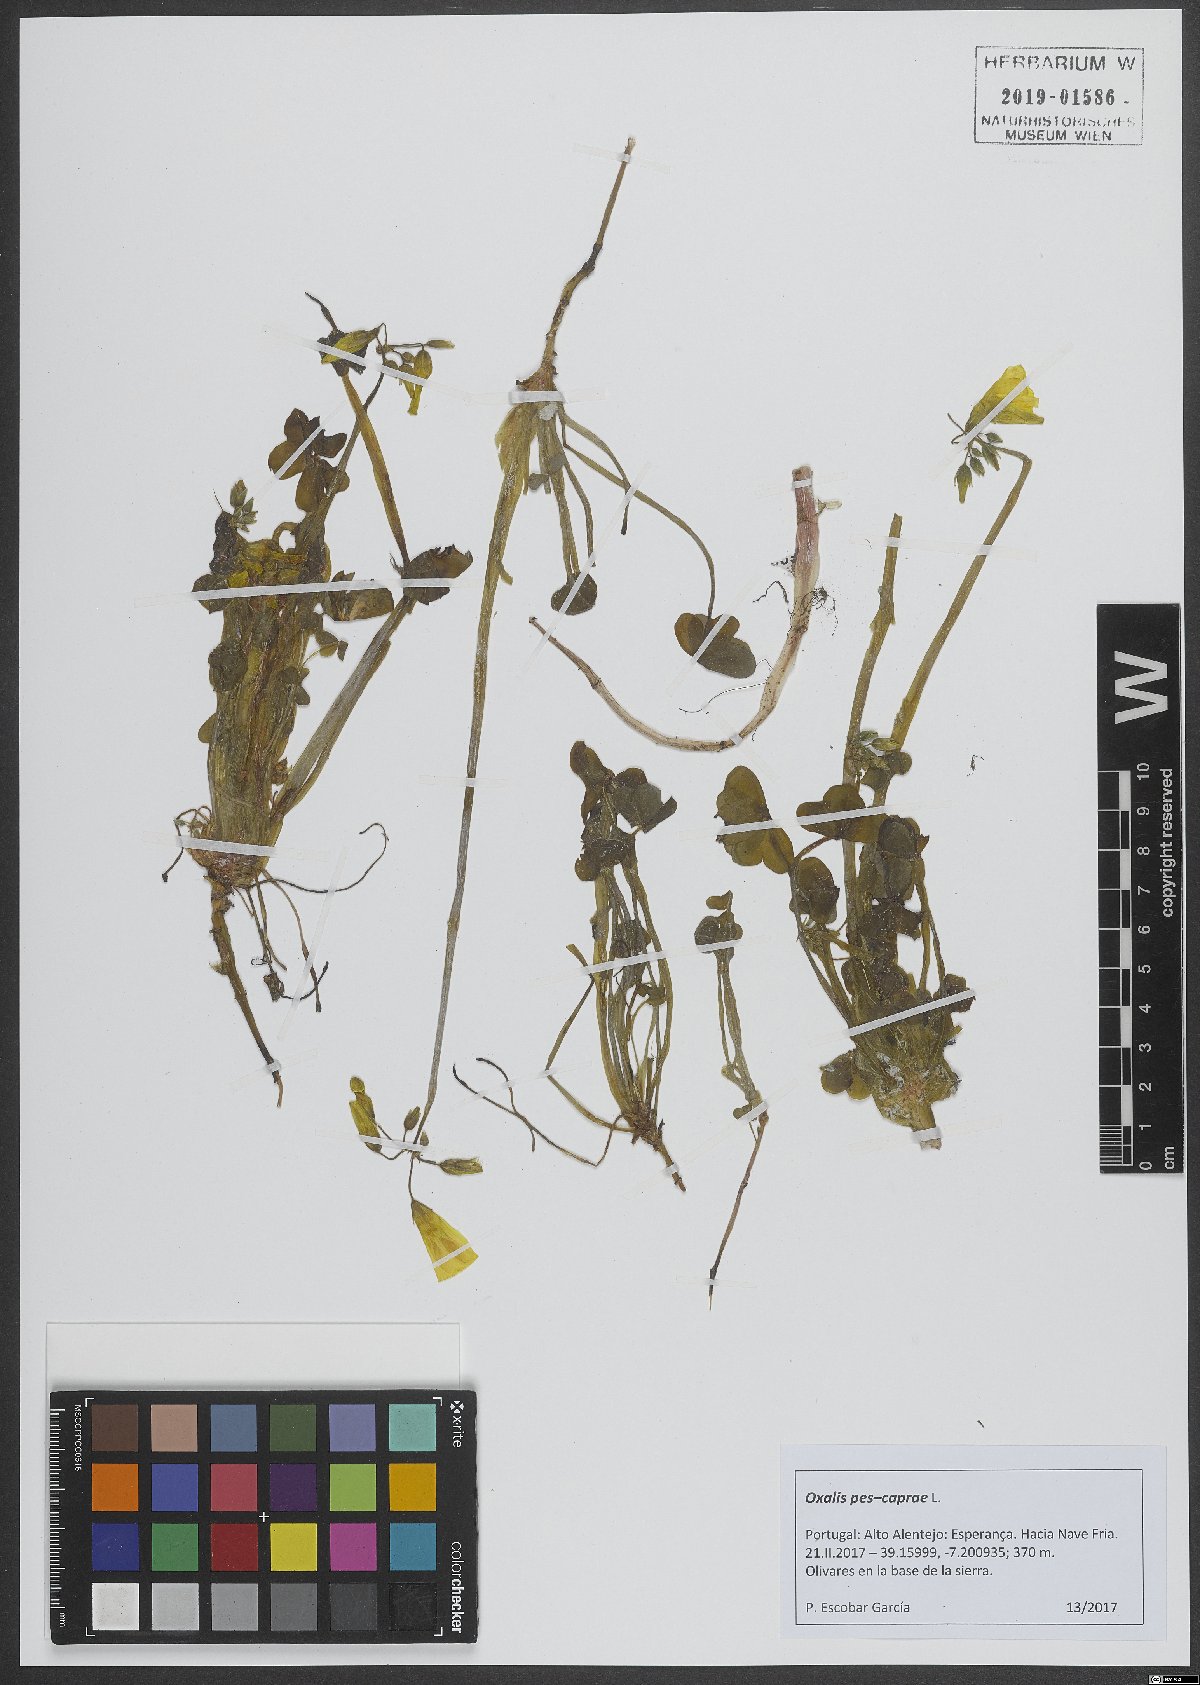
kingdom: Plantae
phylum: Tracheophyta
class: Magnoliopsida
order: Oxalidales
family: Oxalidaceae
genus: Oxalis
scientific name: Oxalis pes-caprae
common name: Bermuda-buttercup
